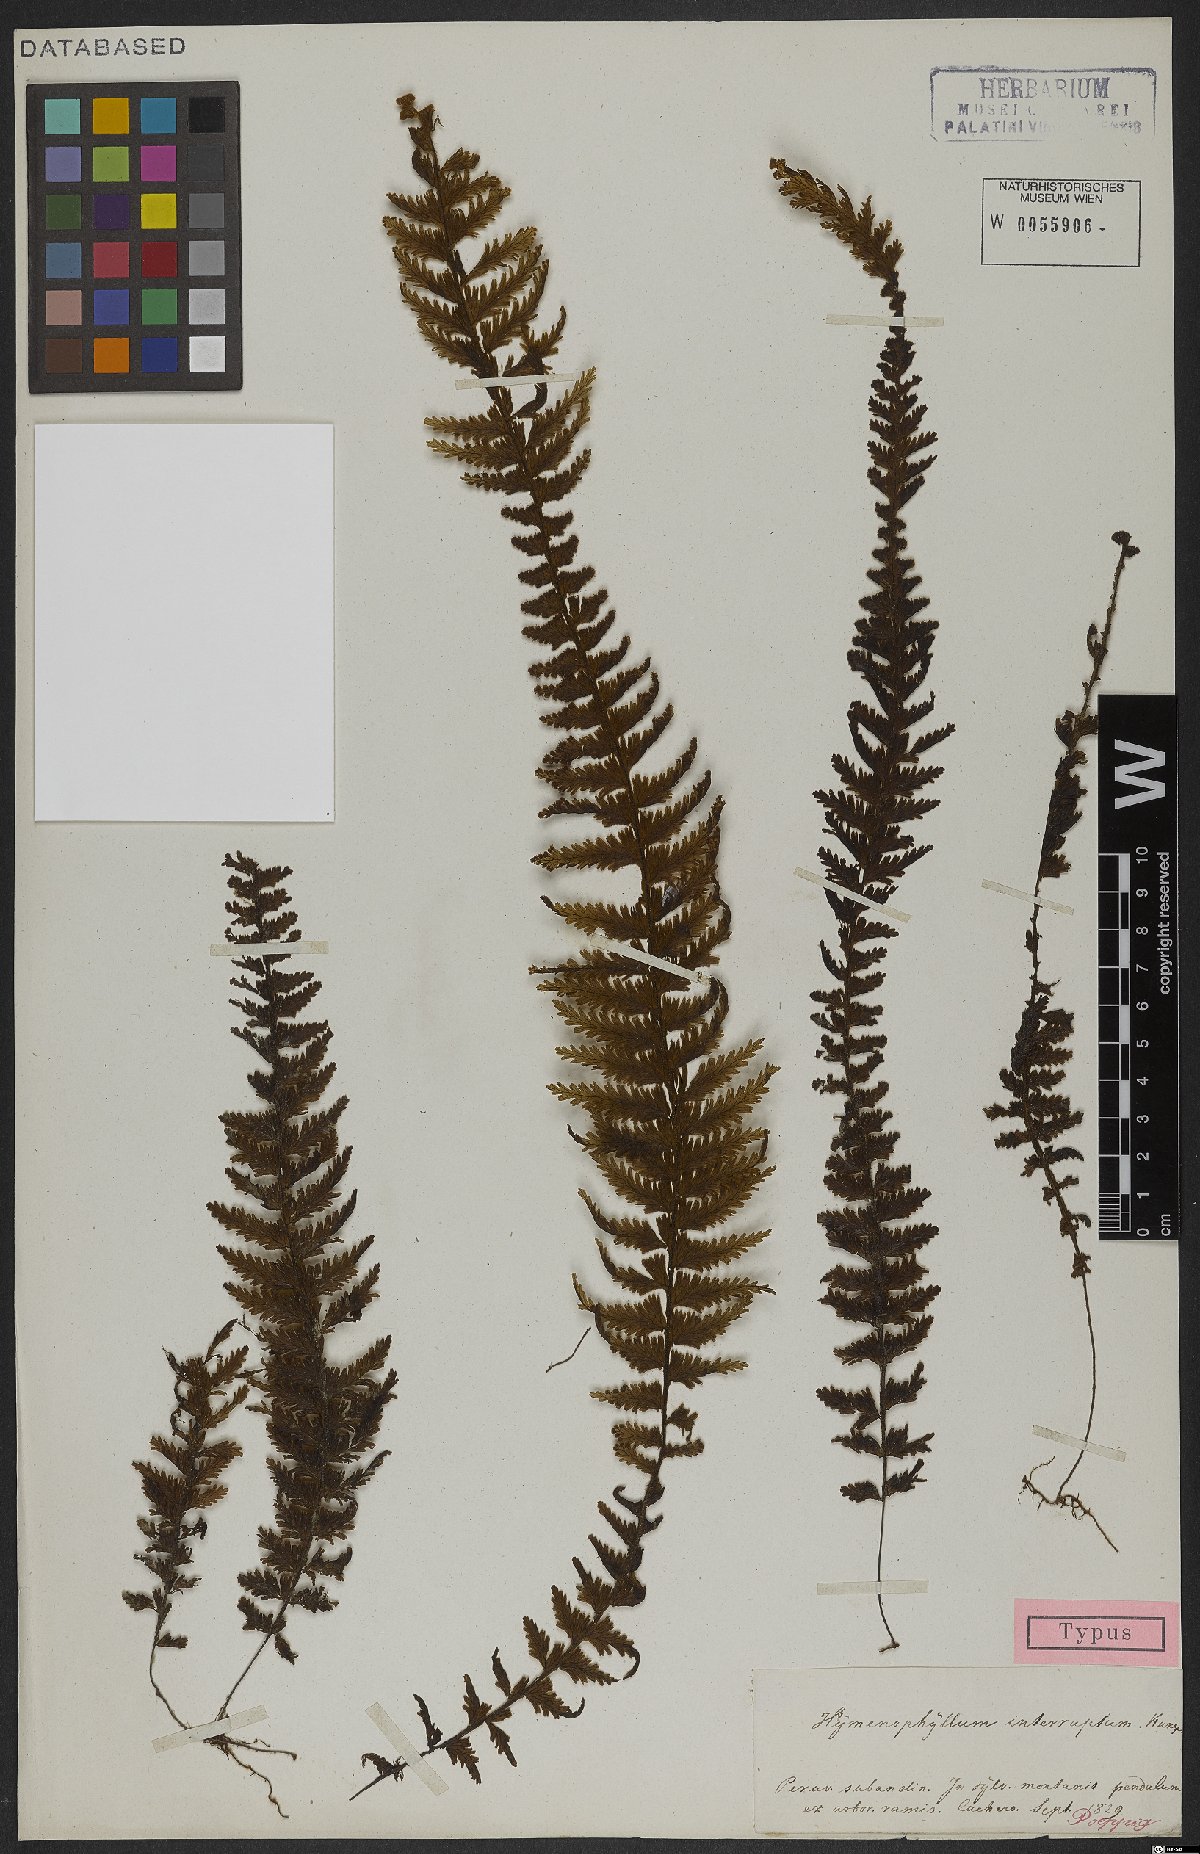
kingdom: Plantae
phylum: Tracheophyta
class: Polypodiopsida
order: Hymenophyllales
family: Hymenophyllaceae
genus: Hymenophyllum
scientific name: Hymenophyllum interruptum
